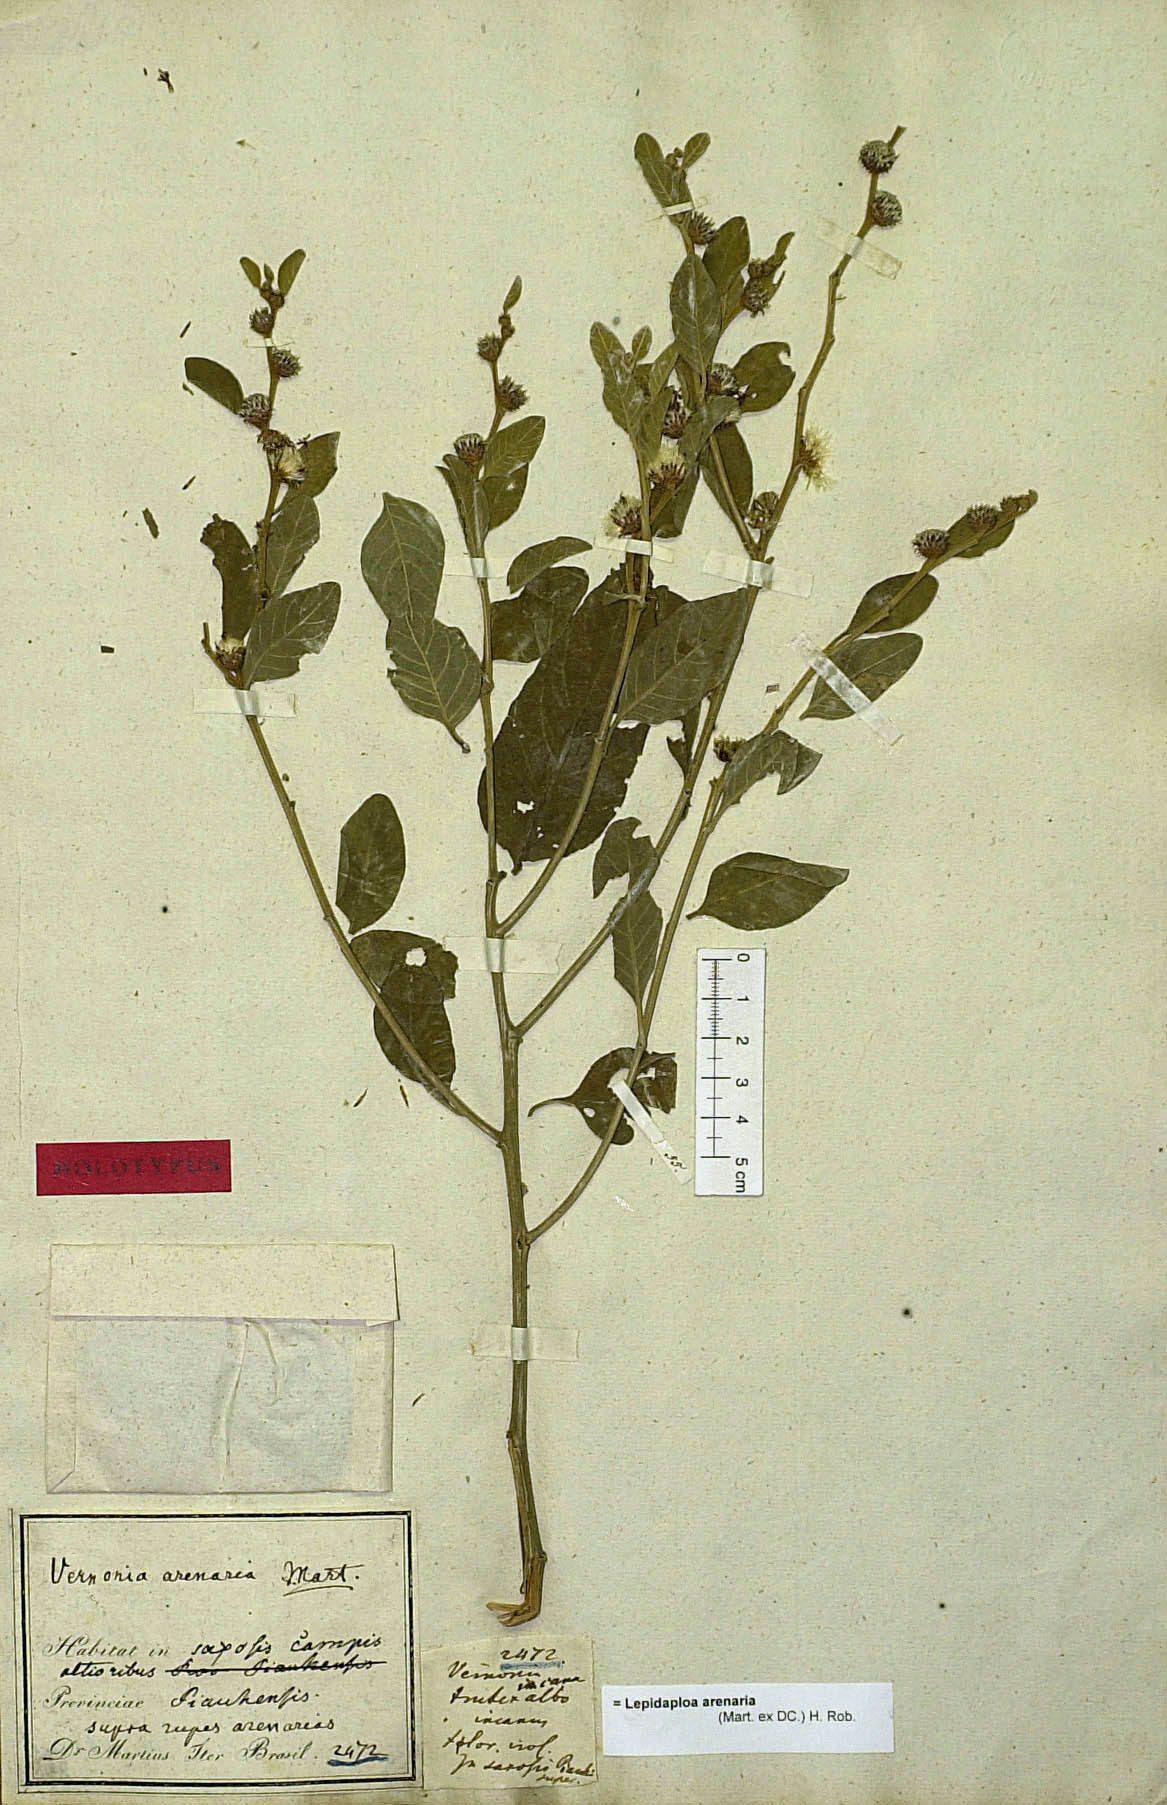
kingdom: Plantae
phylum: Tracheophyta
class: Magnoliopsida
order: Asterales
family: Asteraceae
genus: Lepidaploa
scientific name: Lepidaploa arenaria
